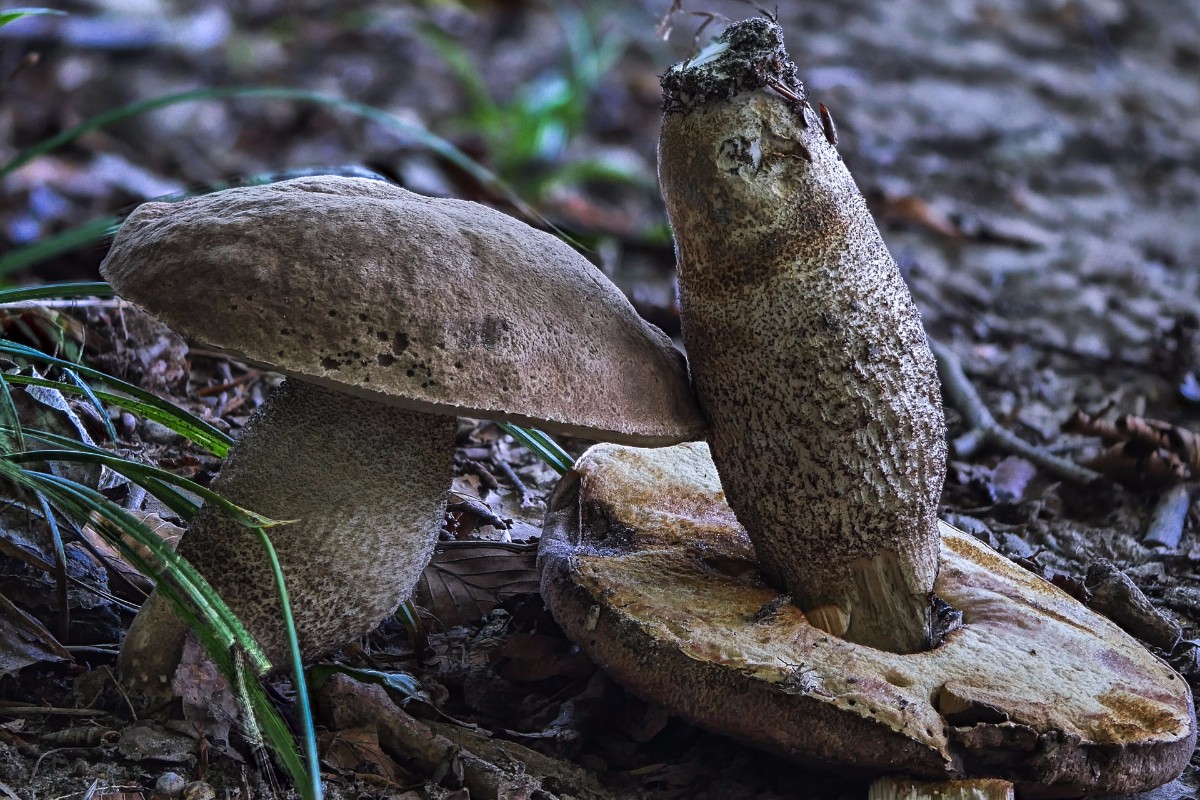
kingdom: Fungi
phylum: Basidiomycota
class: Agaricomycetes
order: Boletales
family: Boletaceae
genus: Leccinum
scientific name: Leccinum duriusculum
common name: poppel-skælrørhat
